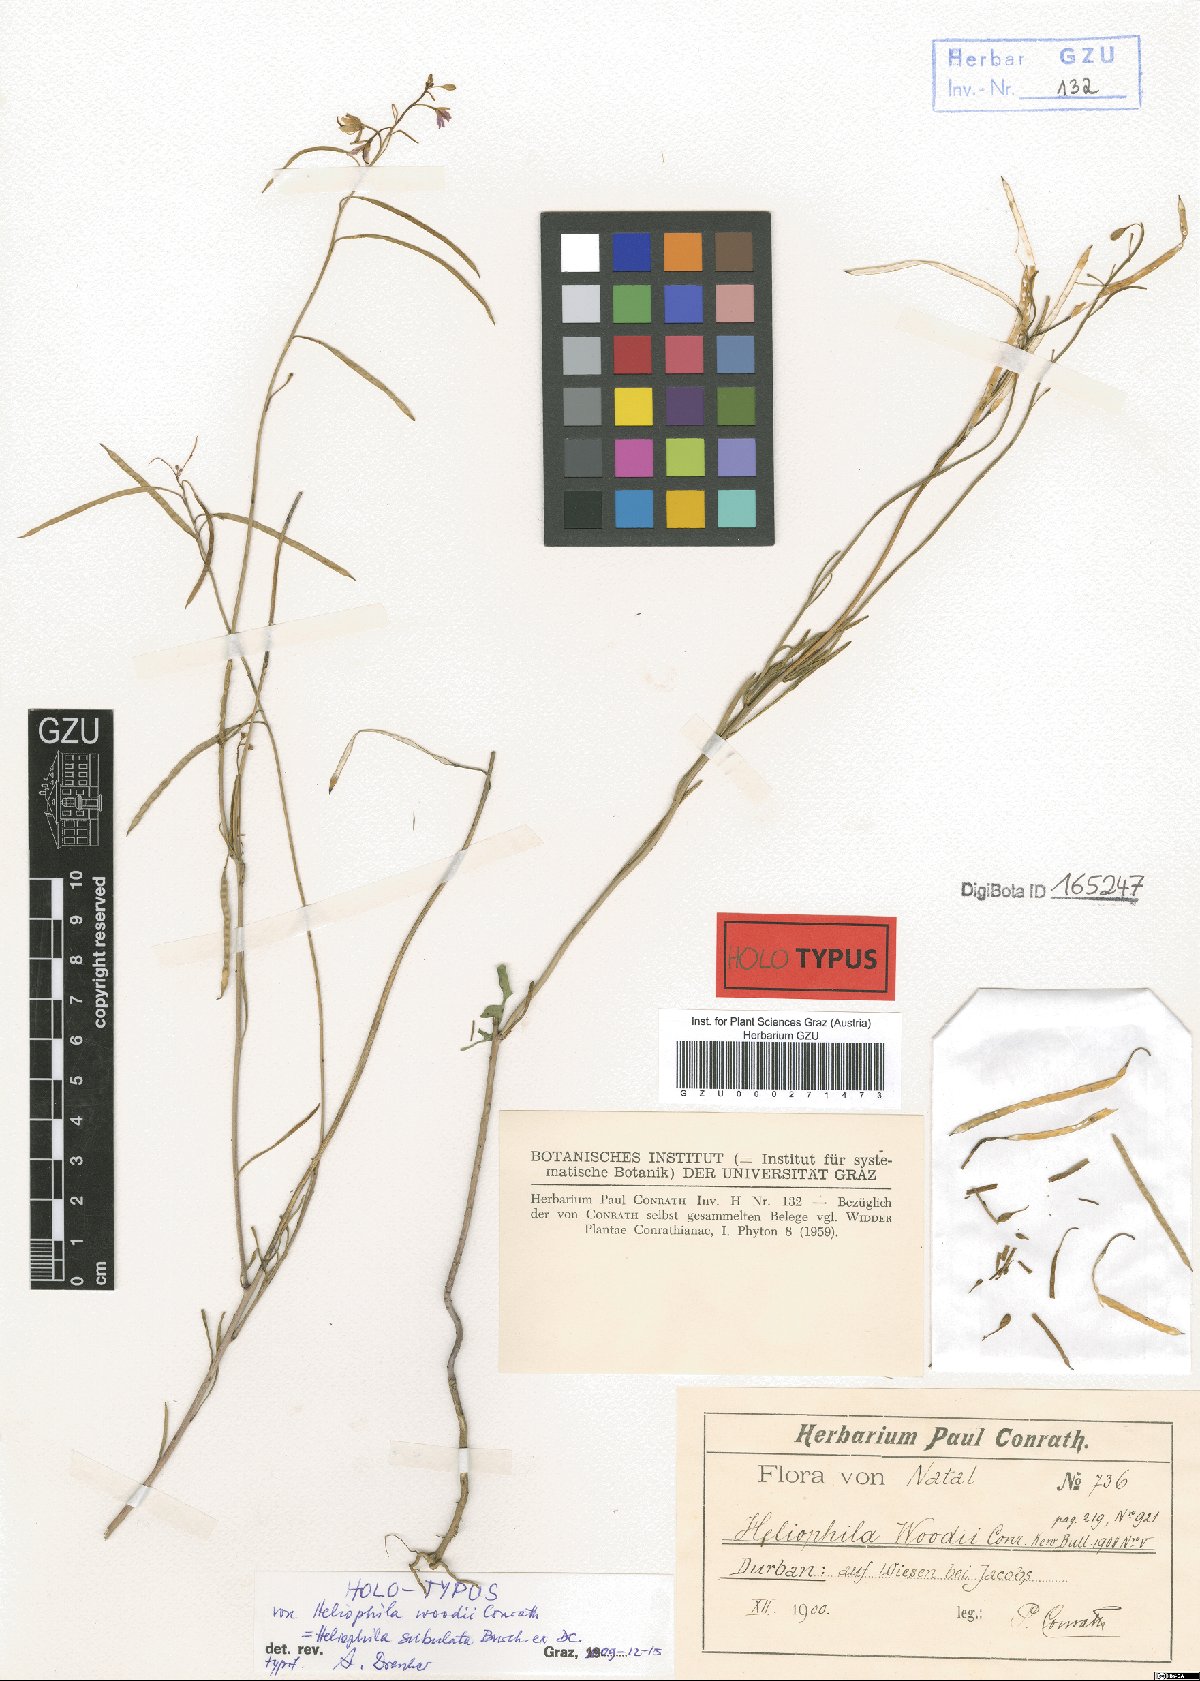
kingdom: Plantae
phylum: Tracheophyta
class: Magnoliopsida
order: Brassicales
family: Brassicaceae
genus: Heliophila
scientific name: Heliophila subulata
